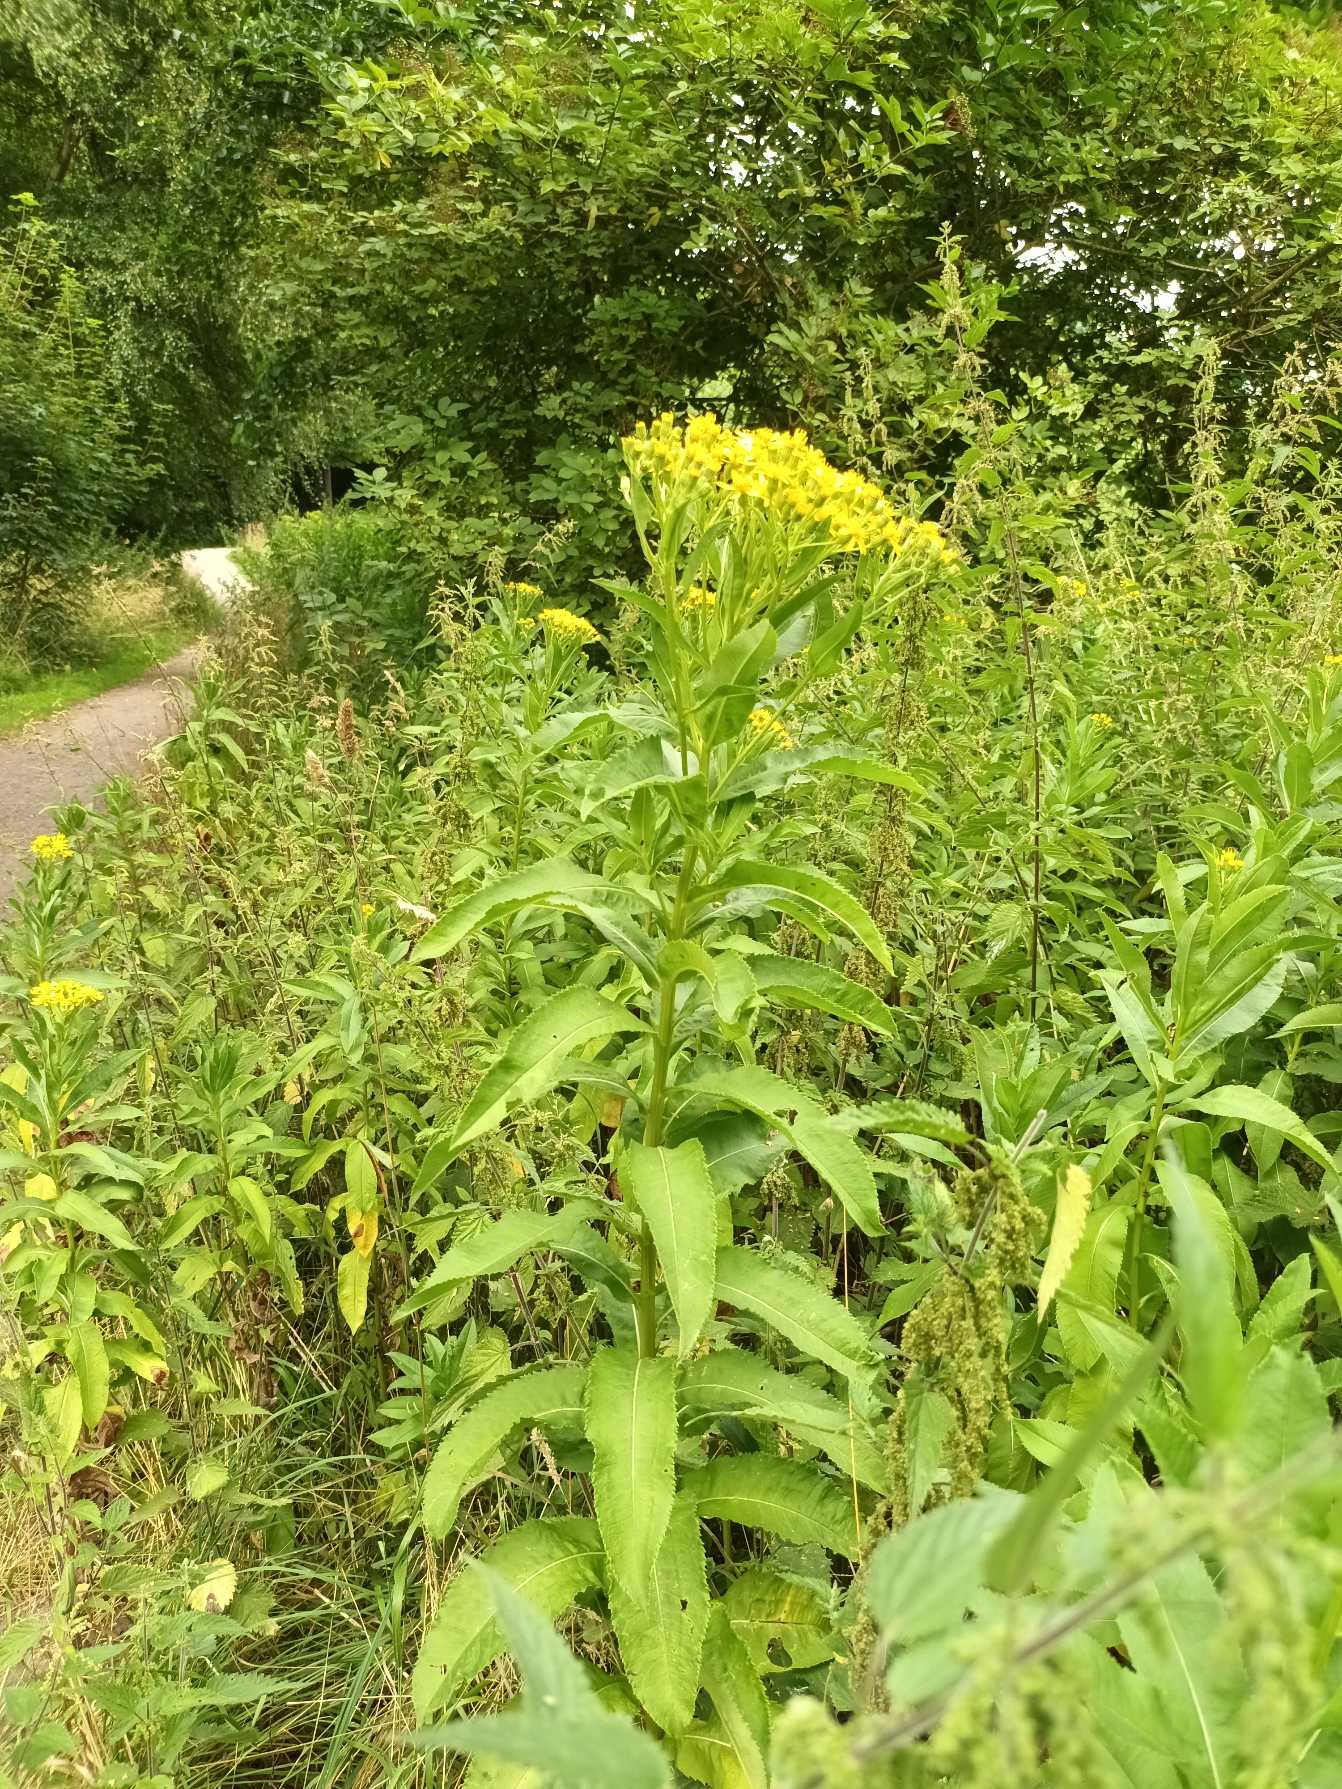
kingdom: Plantae
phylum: Tracheophyta
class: Magnoliopsida
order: Asterales
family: Asteraceae
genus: Senecio
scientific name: Senecio sarracenicus
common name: Saracenisk brandbæger
